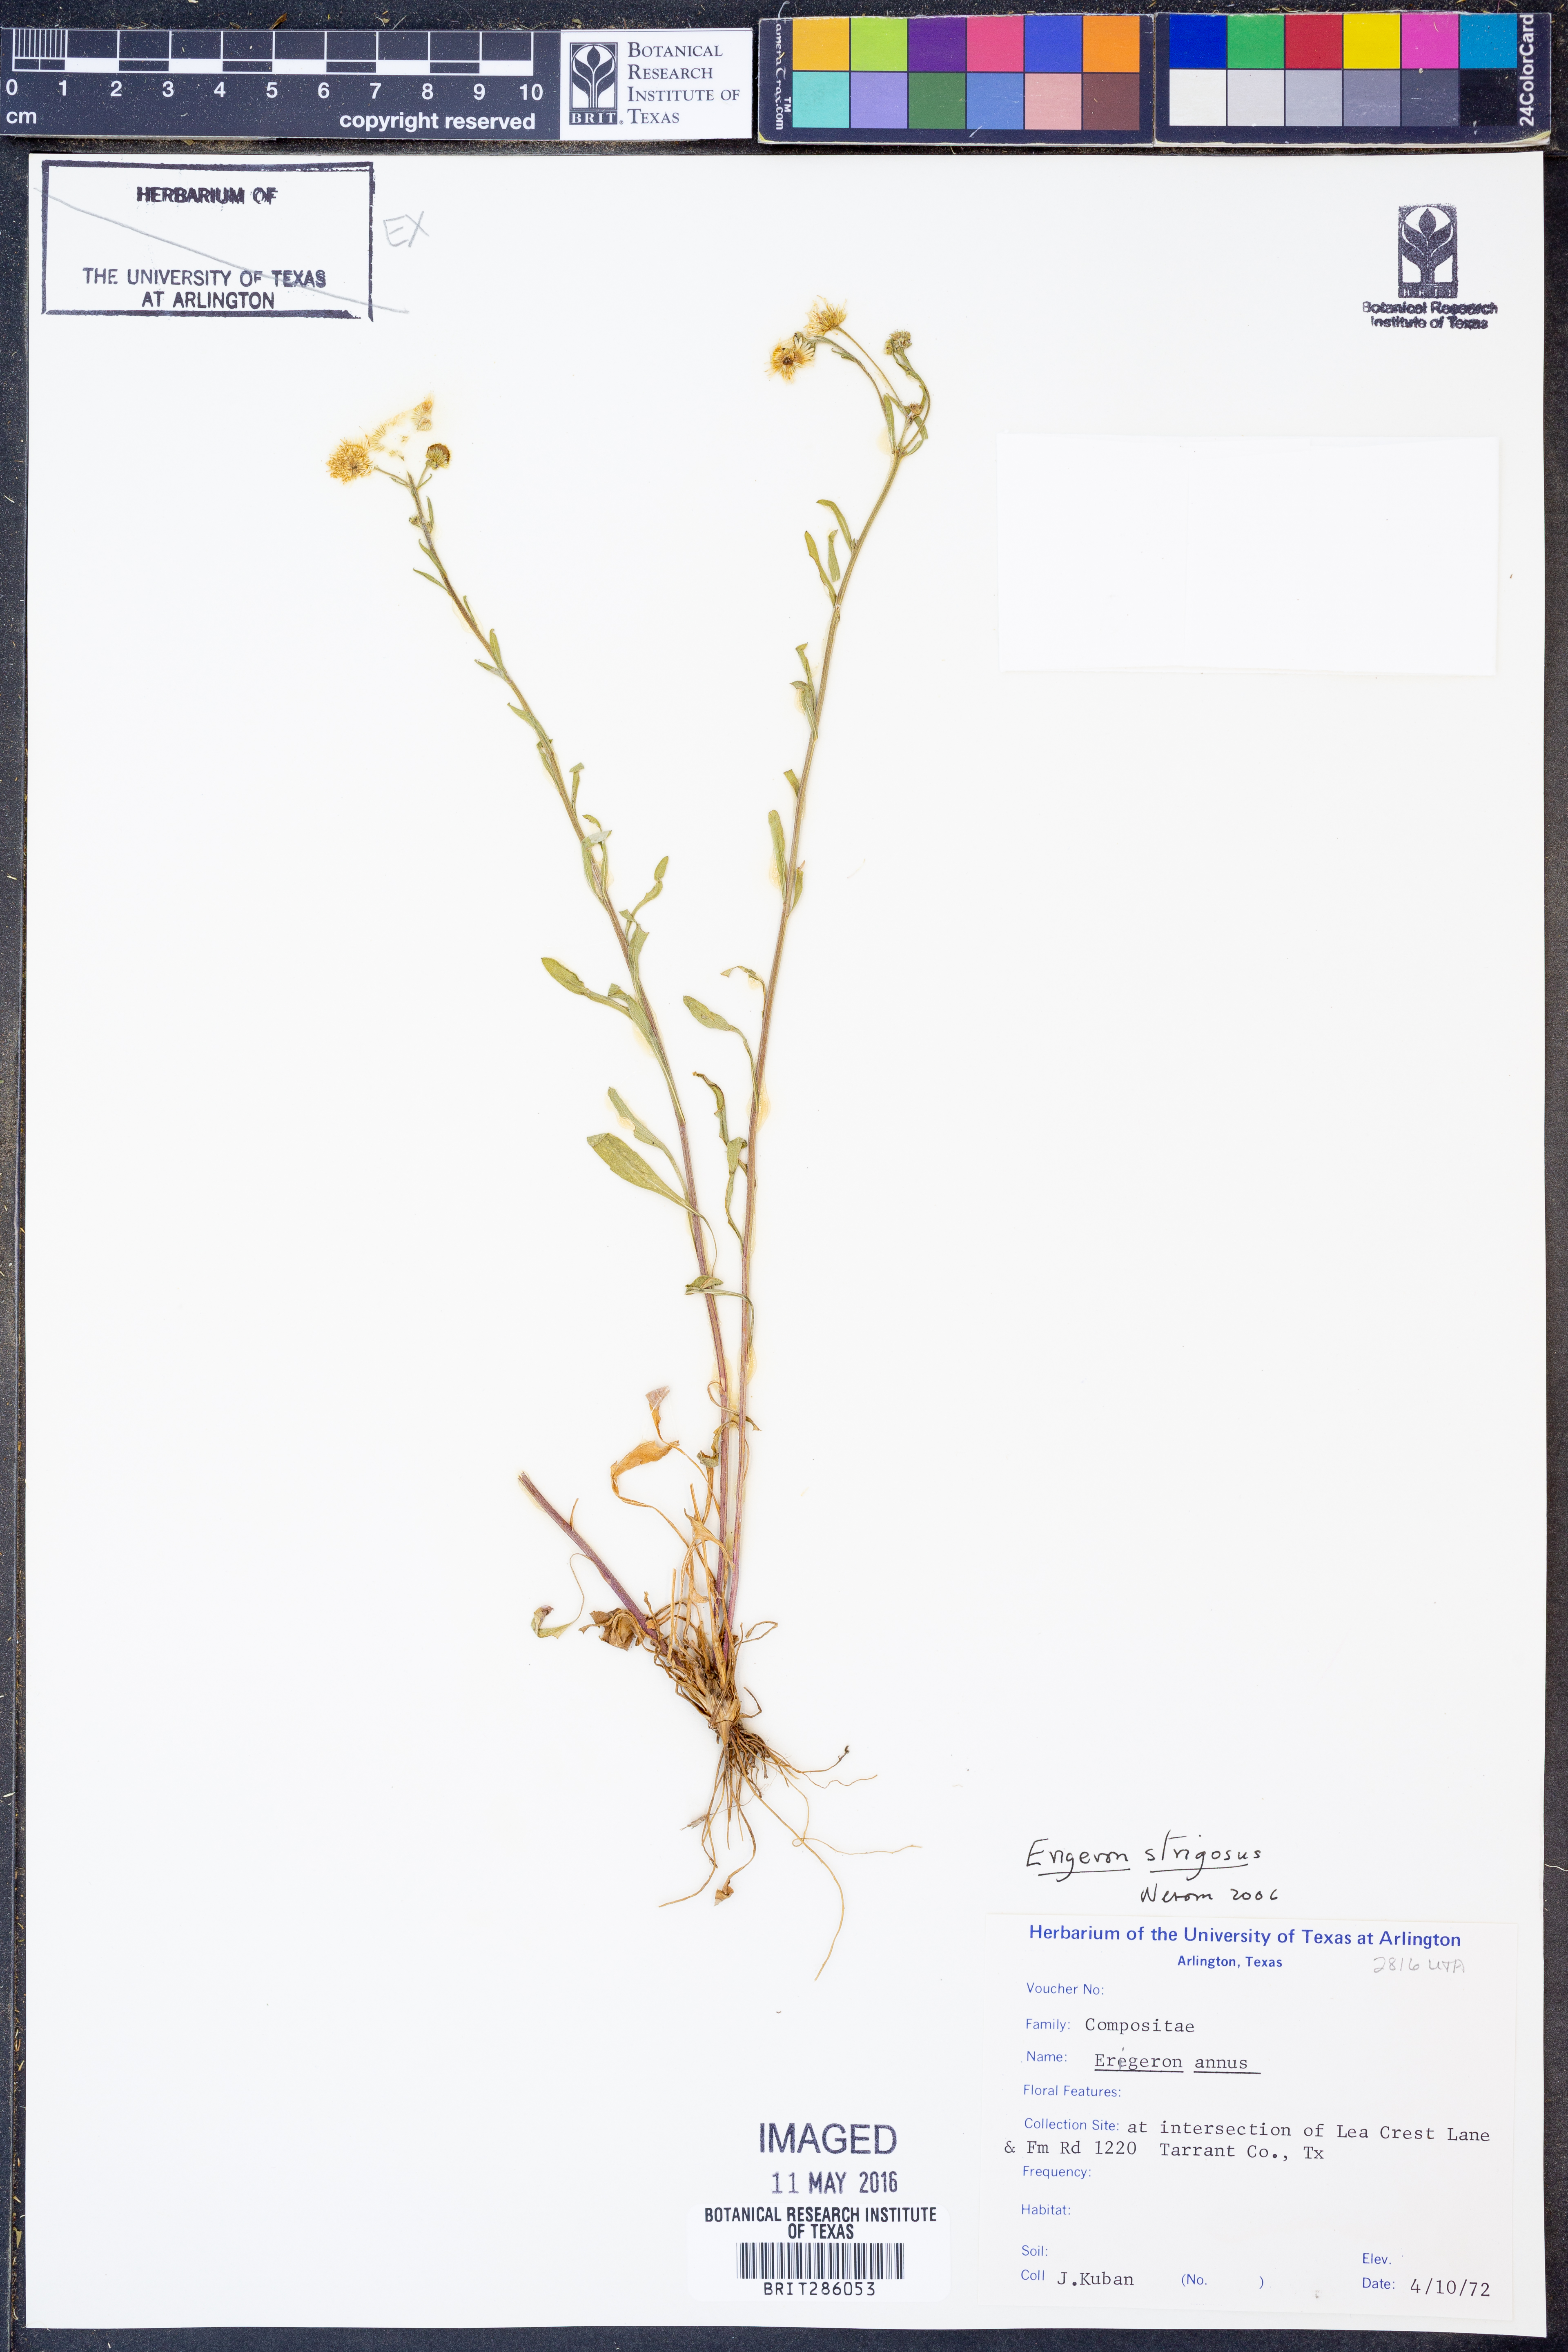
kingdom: Plantae
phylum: Tracheophyta
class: Magnoliopsida
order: Asterales
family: Asteraceae
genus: Erigeron
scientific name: Erigeron strigosus
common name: Common eastern fleabane
